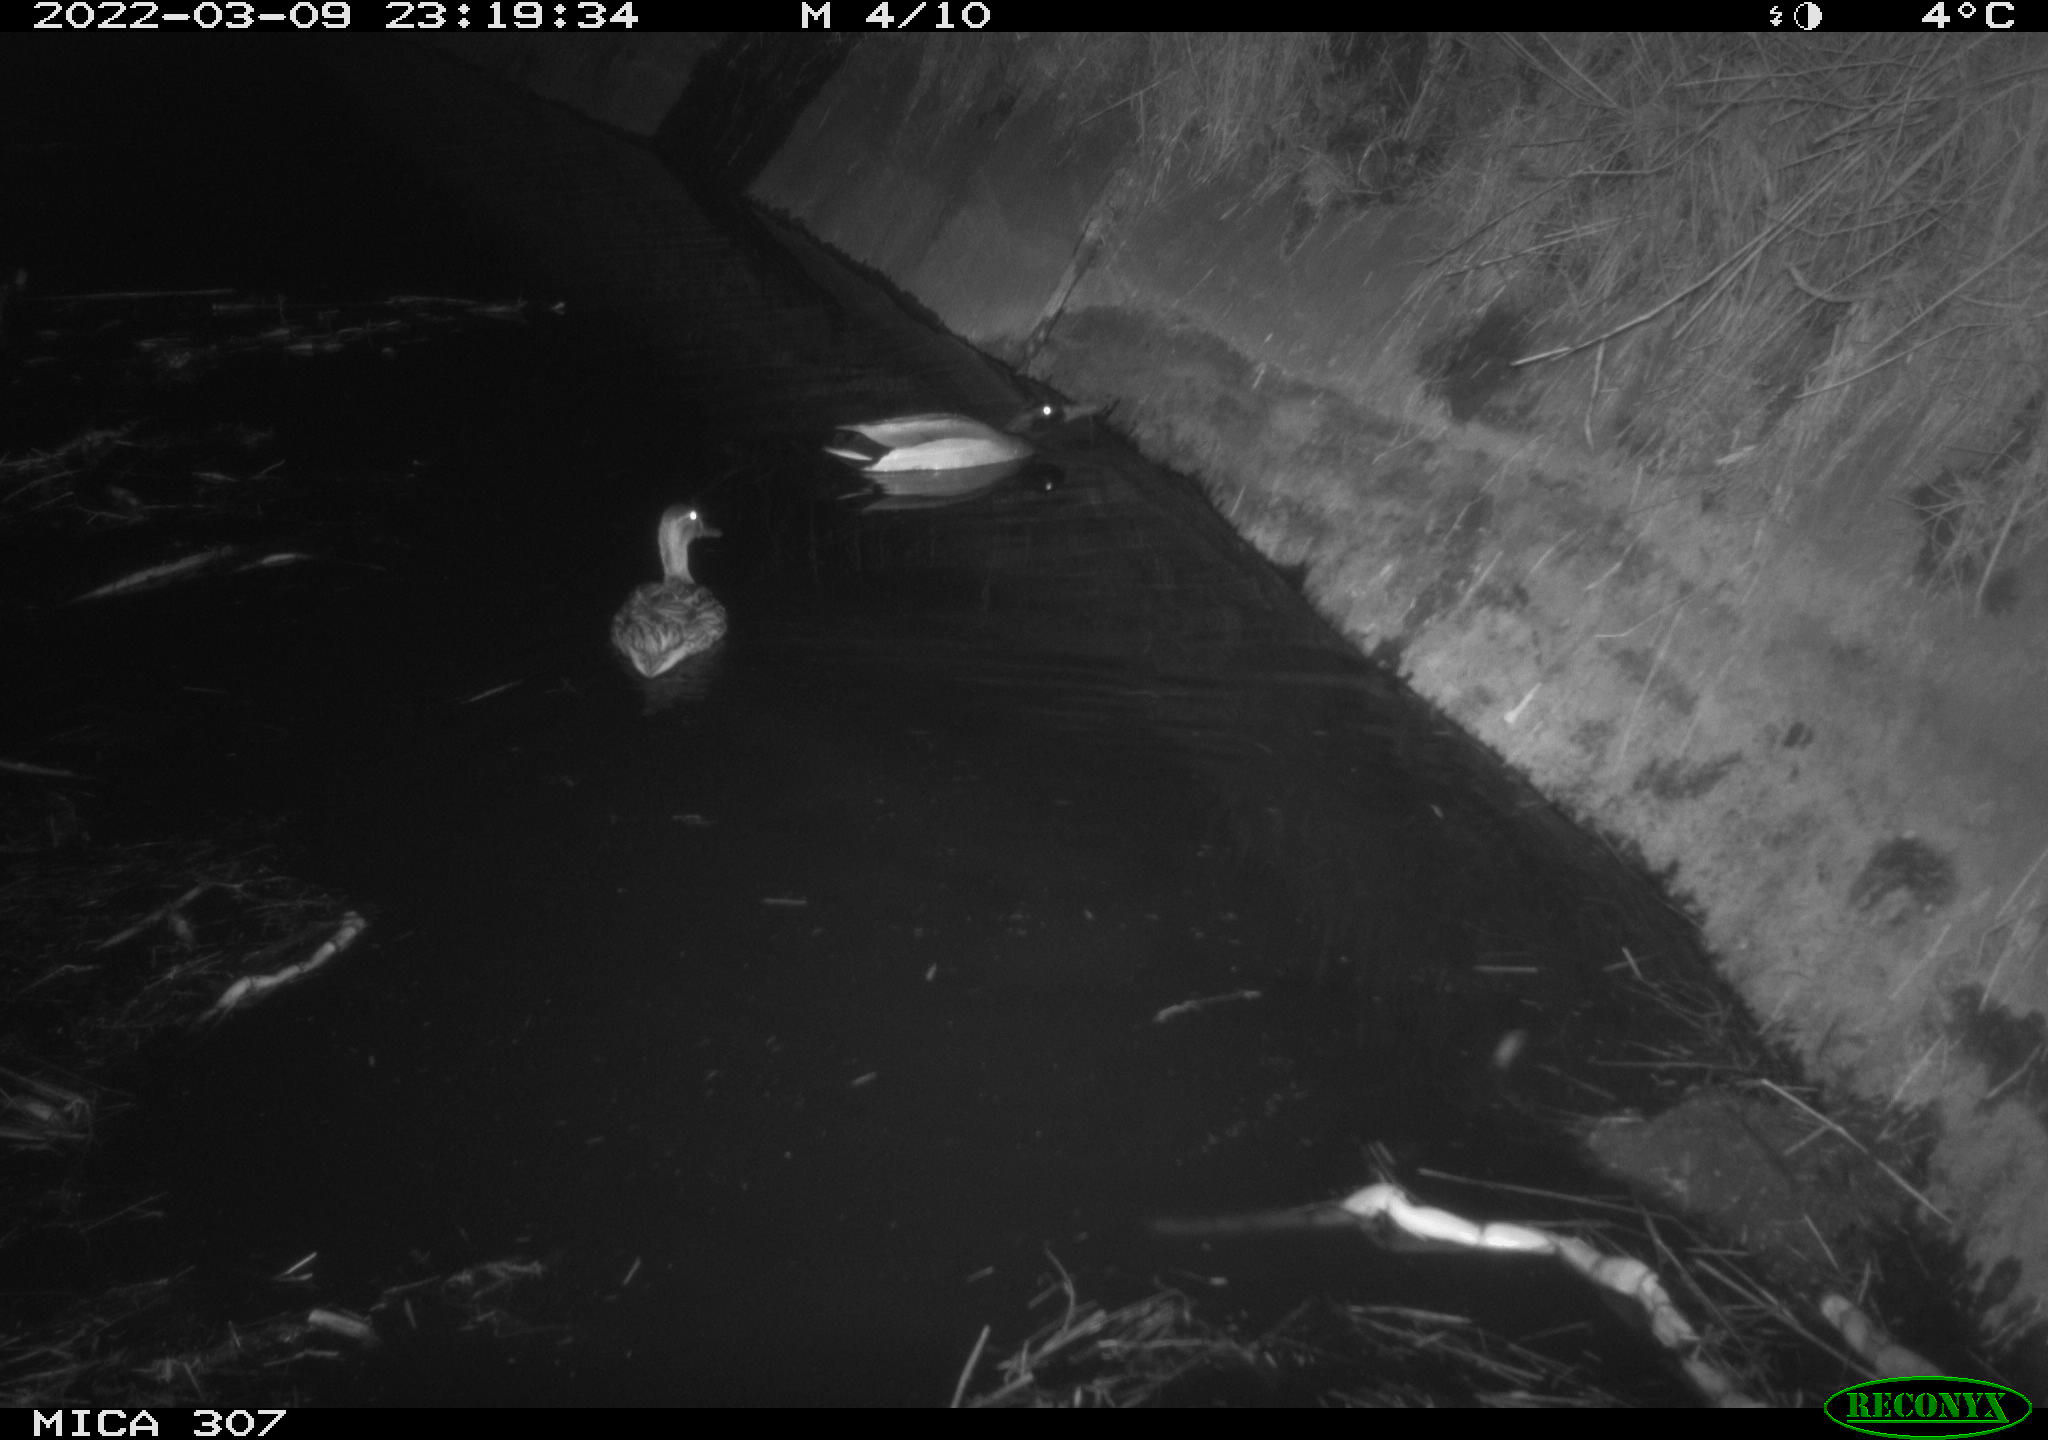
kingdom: Animalia
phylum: Chordata
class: Aves
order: Anseriformes
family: Anatidae
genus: Anas
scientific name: Anas platyrhynchos
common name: Mallard
